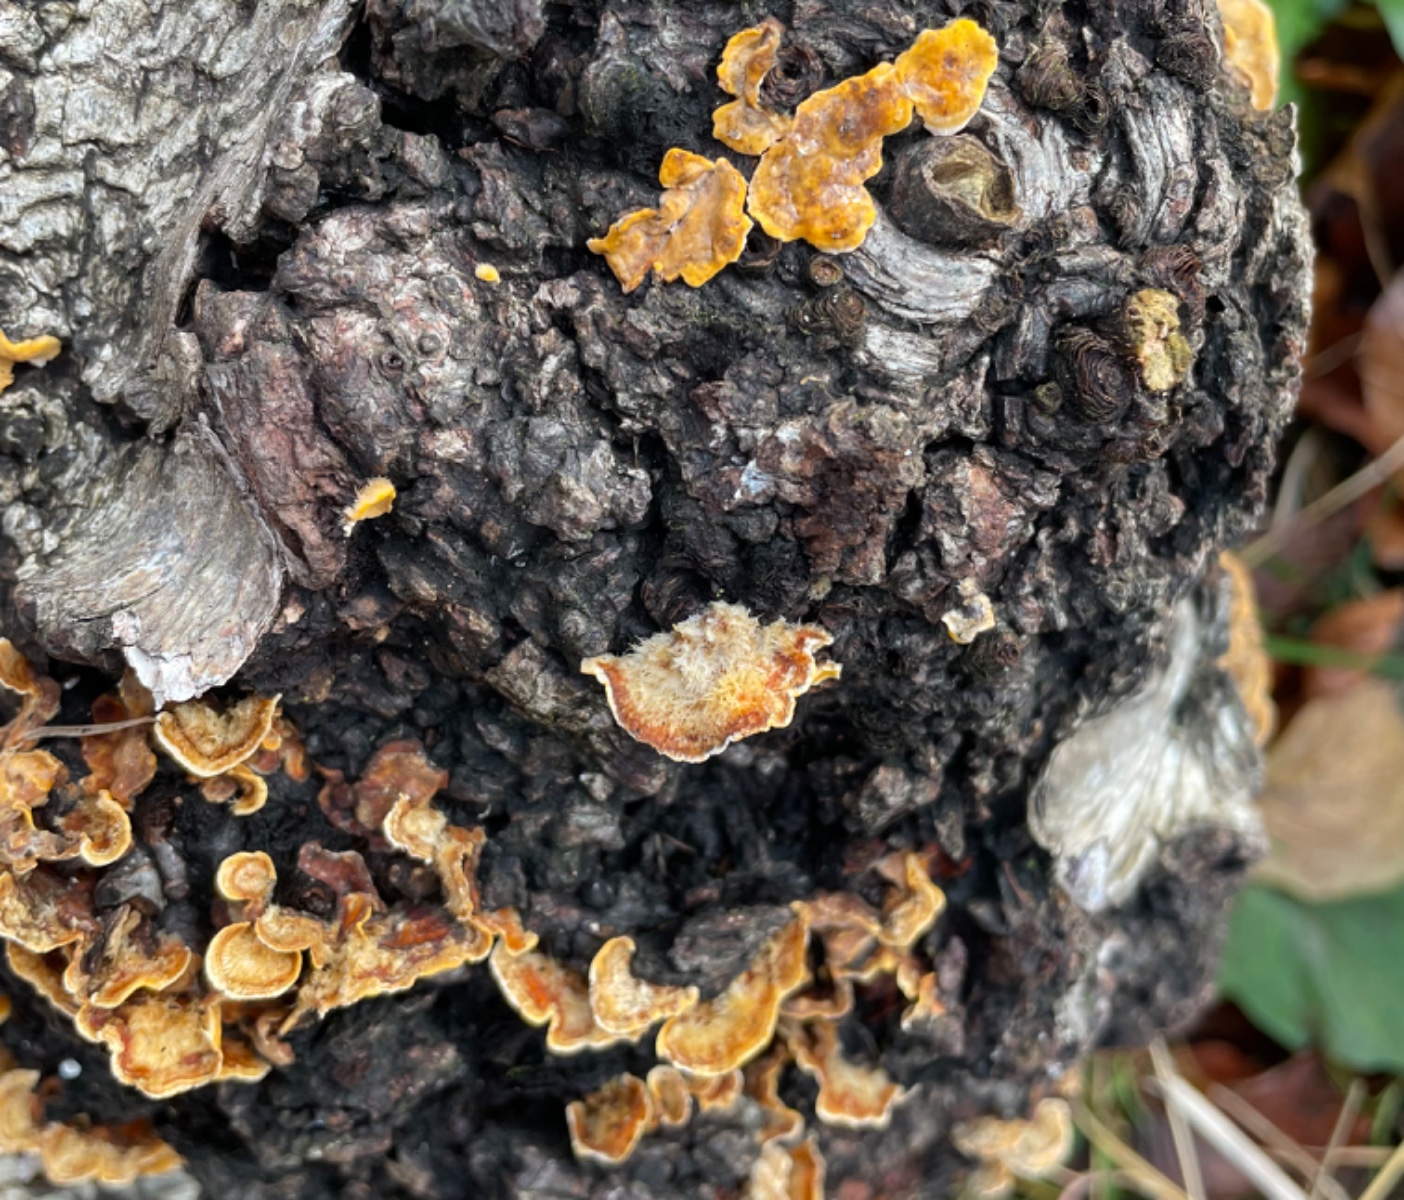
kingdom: Fungi
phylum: Basidiomycota
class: Agaricomycetes
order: Russulales
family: Stereaceae
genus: Stereum
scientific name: Stereum hirsutum
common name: håret lædersvamp
